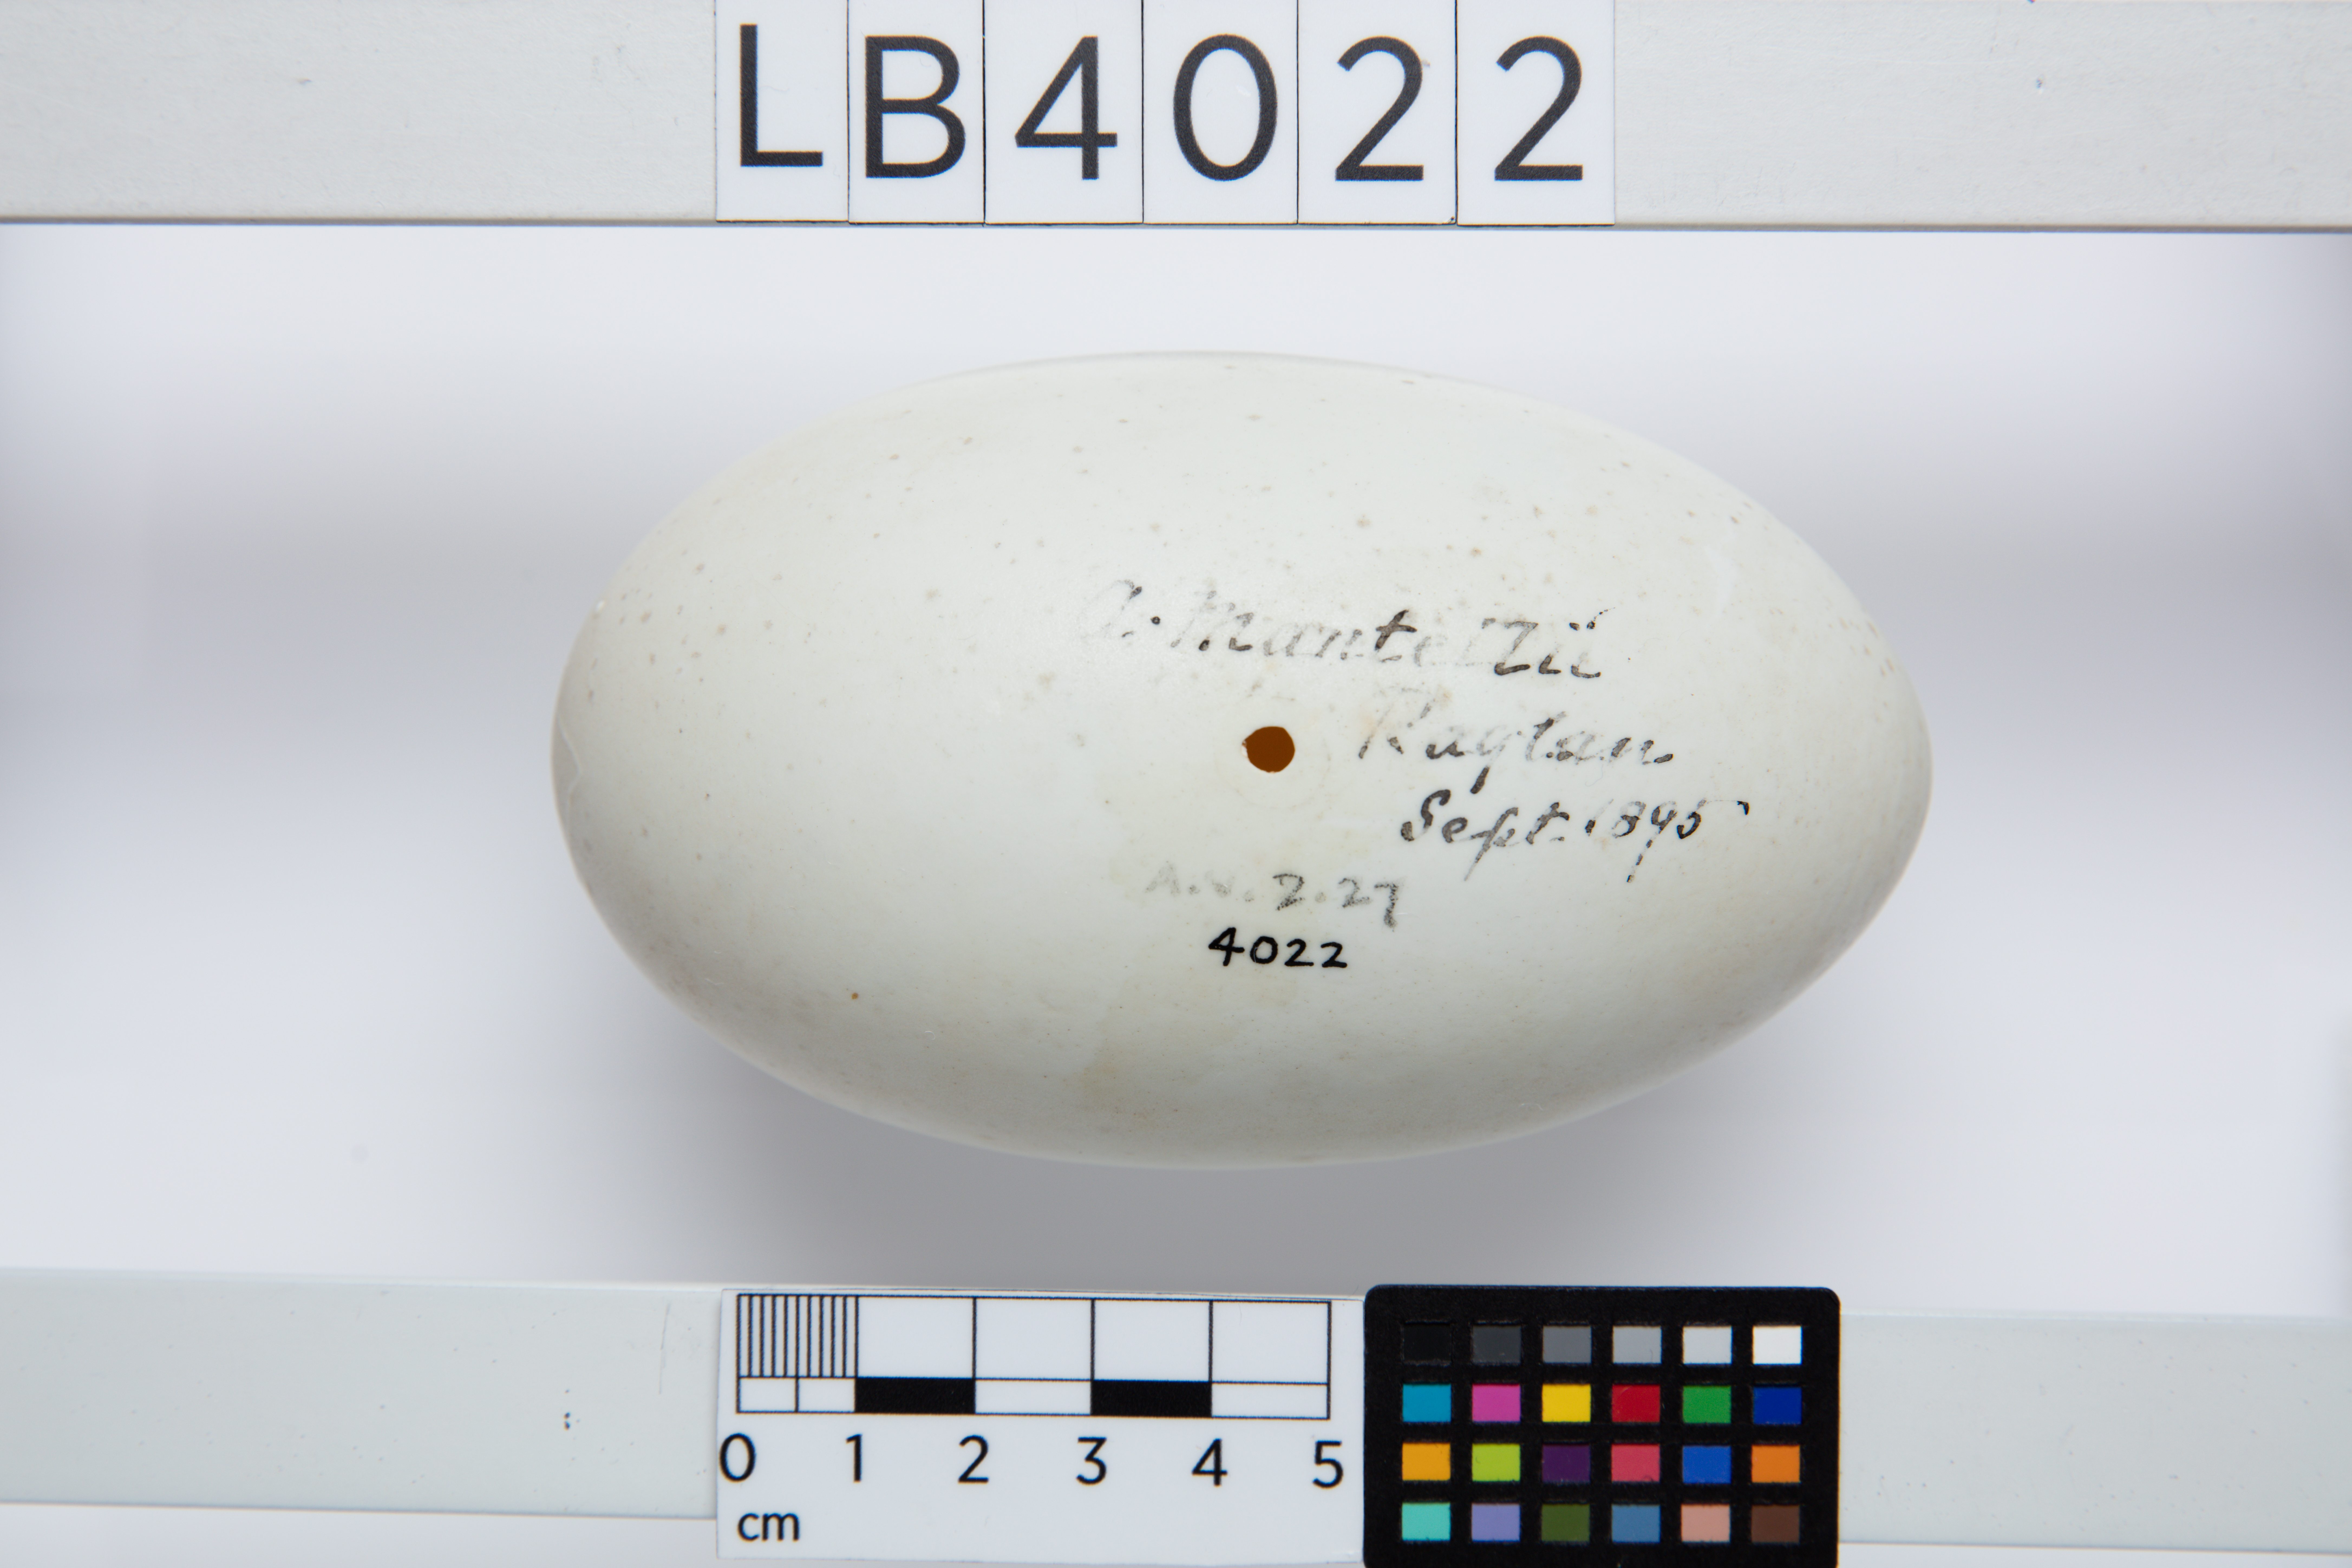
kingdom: Animalia
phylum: Chordata
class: Aves
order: Apterygiformes
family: Apterygidae
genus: Apteryx
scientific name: Apteryx mantelli
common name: North island brown kiwi
